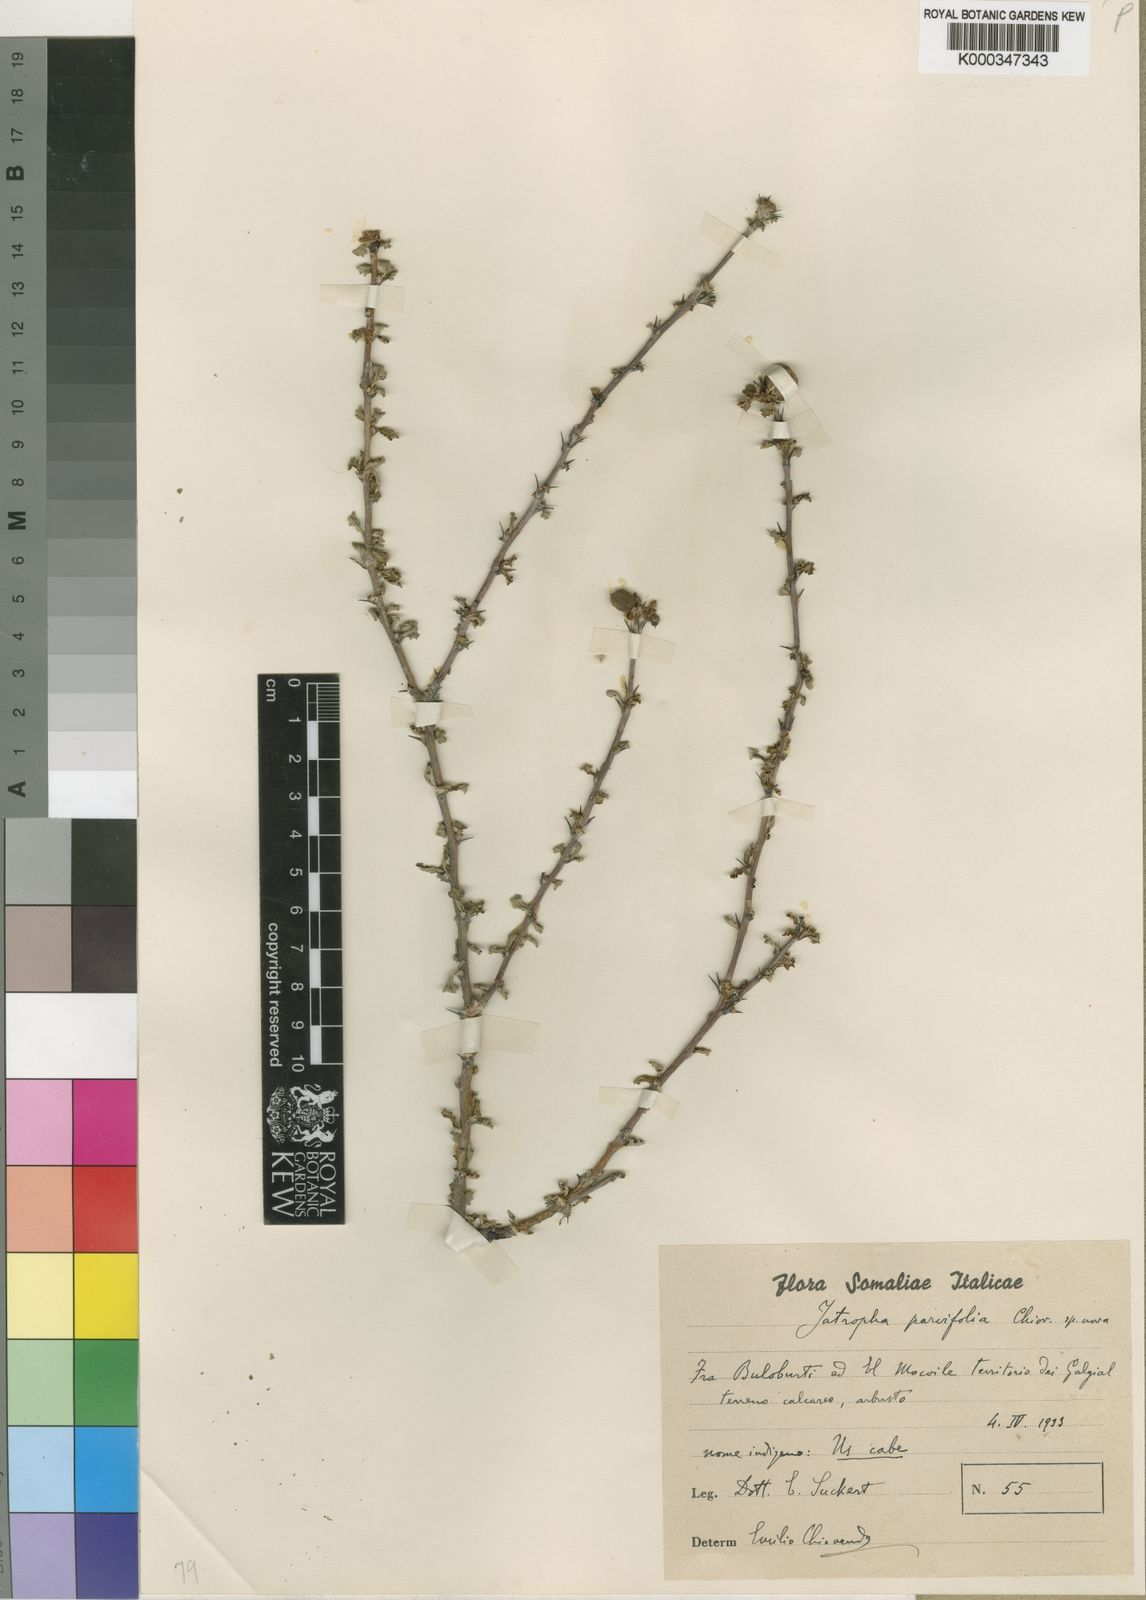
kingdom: Plantae
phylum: Tracheophyta
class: Magnoliopsida
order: Malpighiales
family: Euphorbiaceae
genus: Jatropha
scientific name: Jatropha rivae
